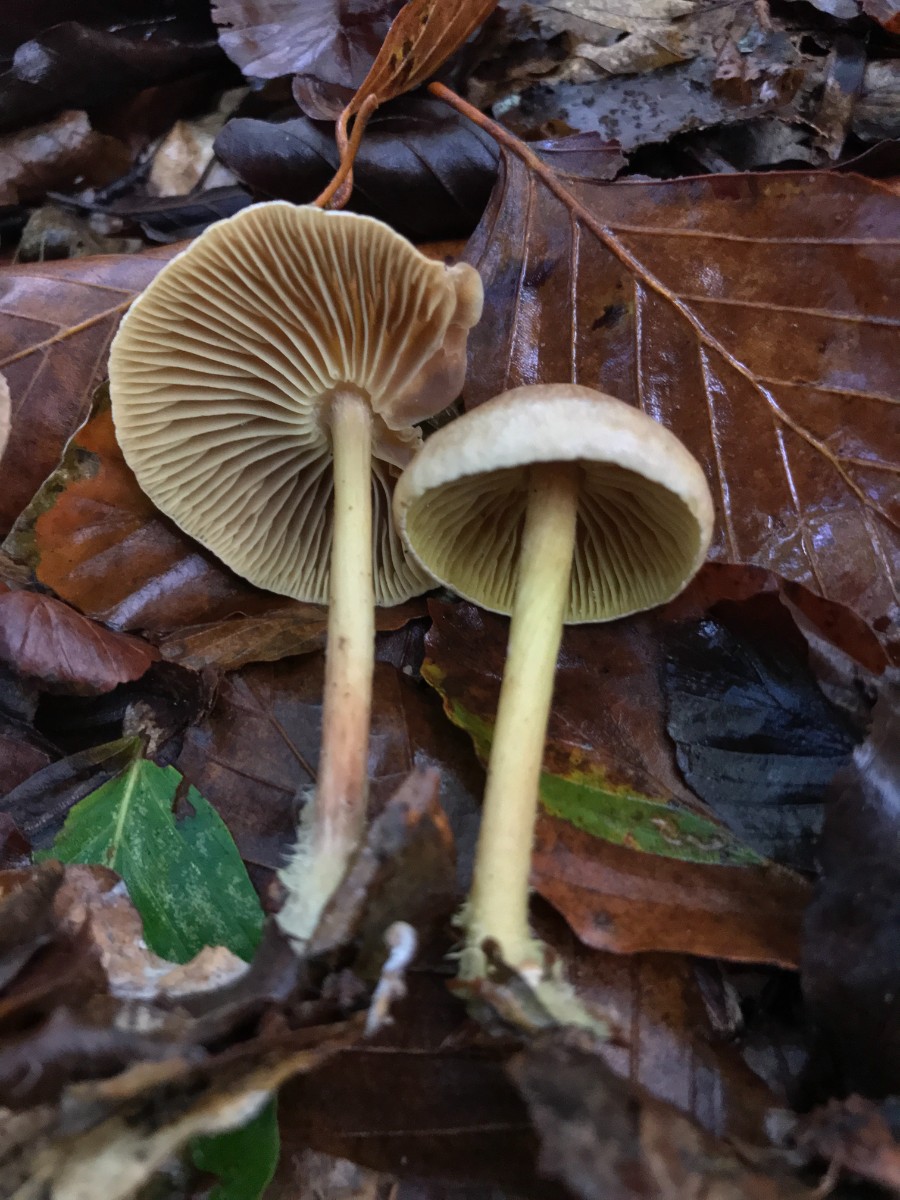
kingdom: Fungi
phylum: Basidiomycota
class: Agaricomycetes
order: Agaricales
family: Omphalotaceae
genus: Collybiopsis
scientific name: Collybiopsis peronata
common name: bestøvlet fladhat
